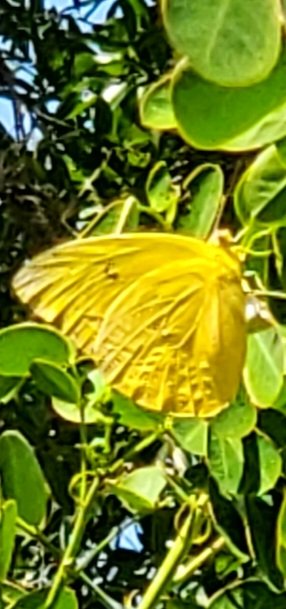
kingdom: Animalia
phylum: Arthropoda
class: Insecta
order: Lepidoptera
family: Pieridae
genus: Phoebis
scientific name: Phoebis philea
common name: Orange-barred Sulphur
